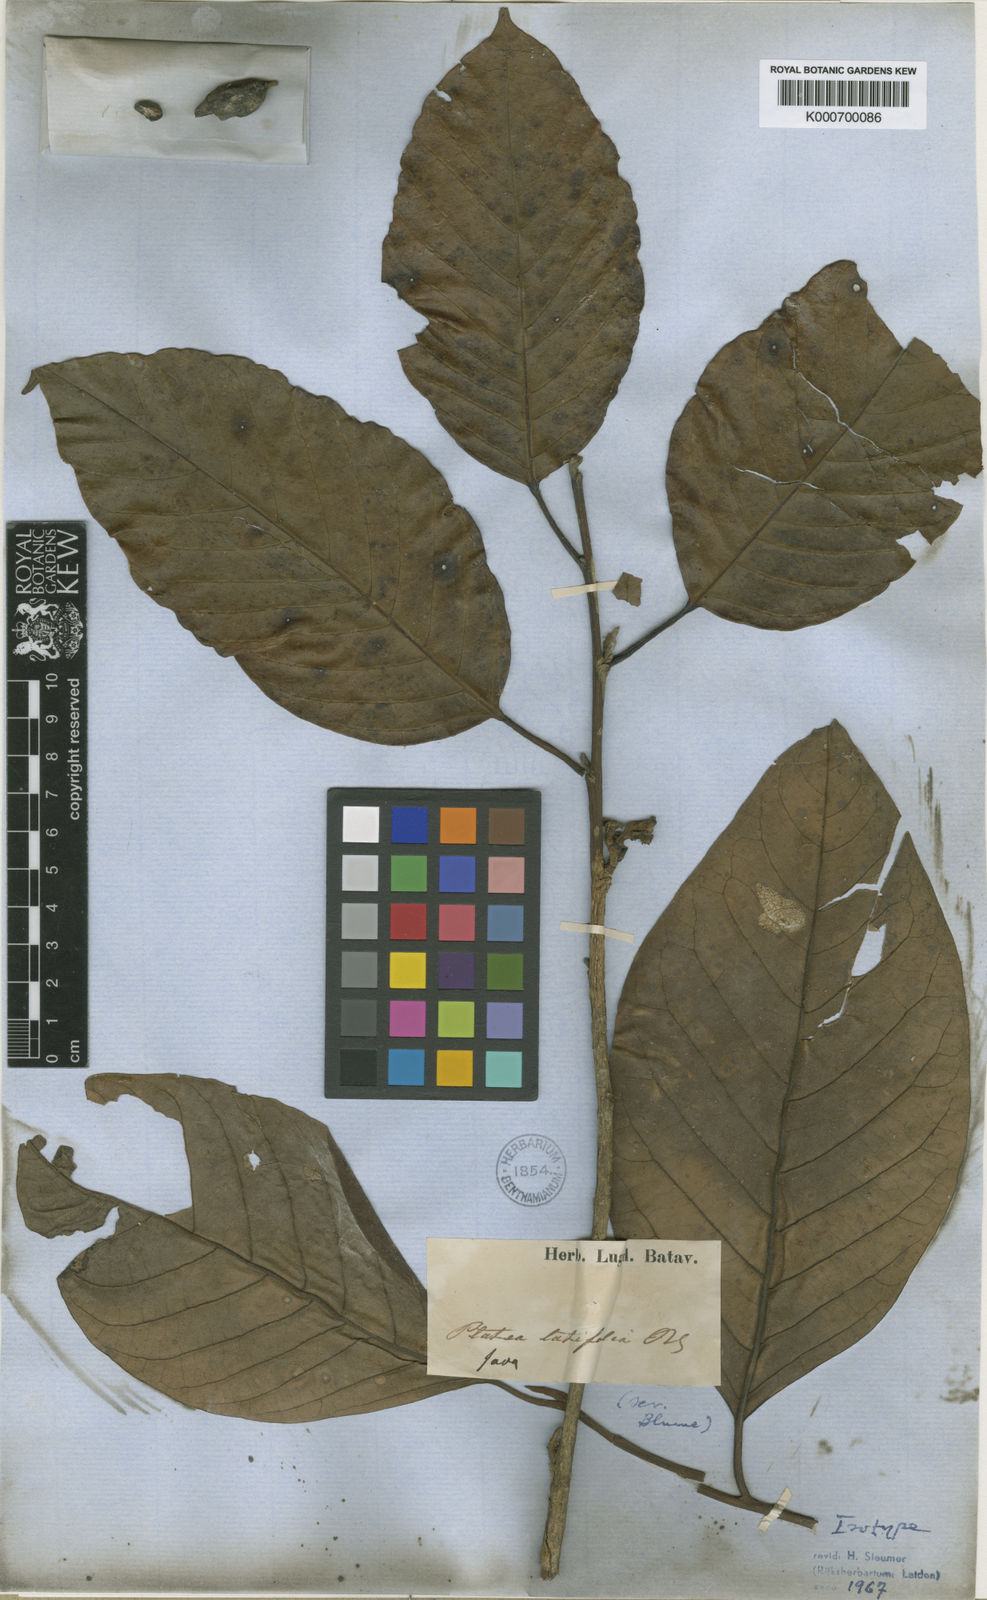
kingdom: Plantae
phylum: Tracheophyta
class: Magnoliopsida
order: Metteniusales
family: Metteniusaceae
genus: Platea
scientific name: Platea latifolia
